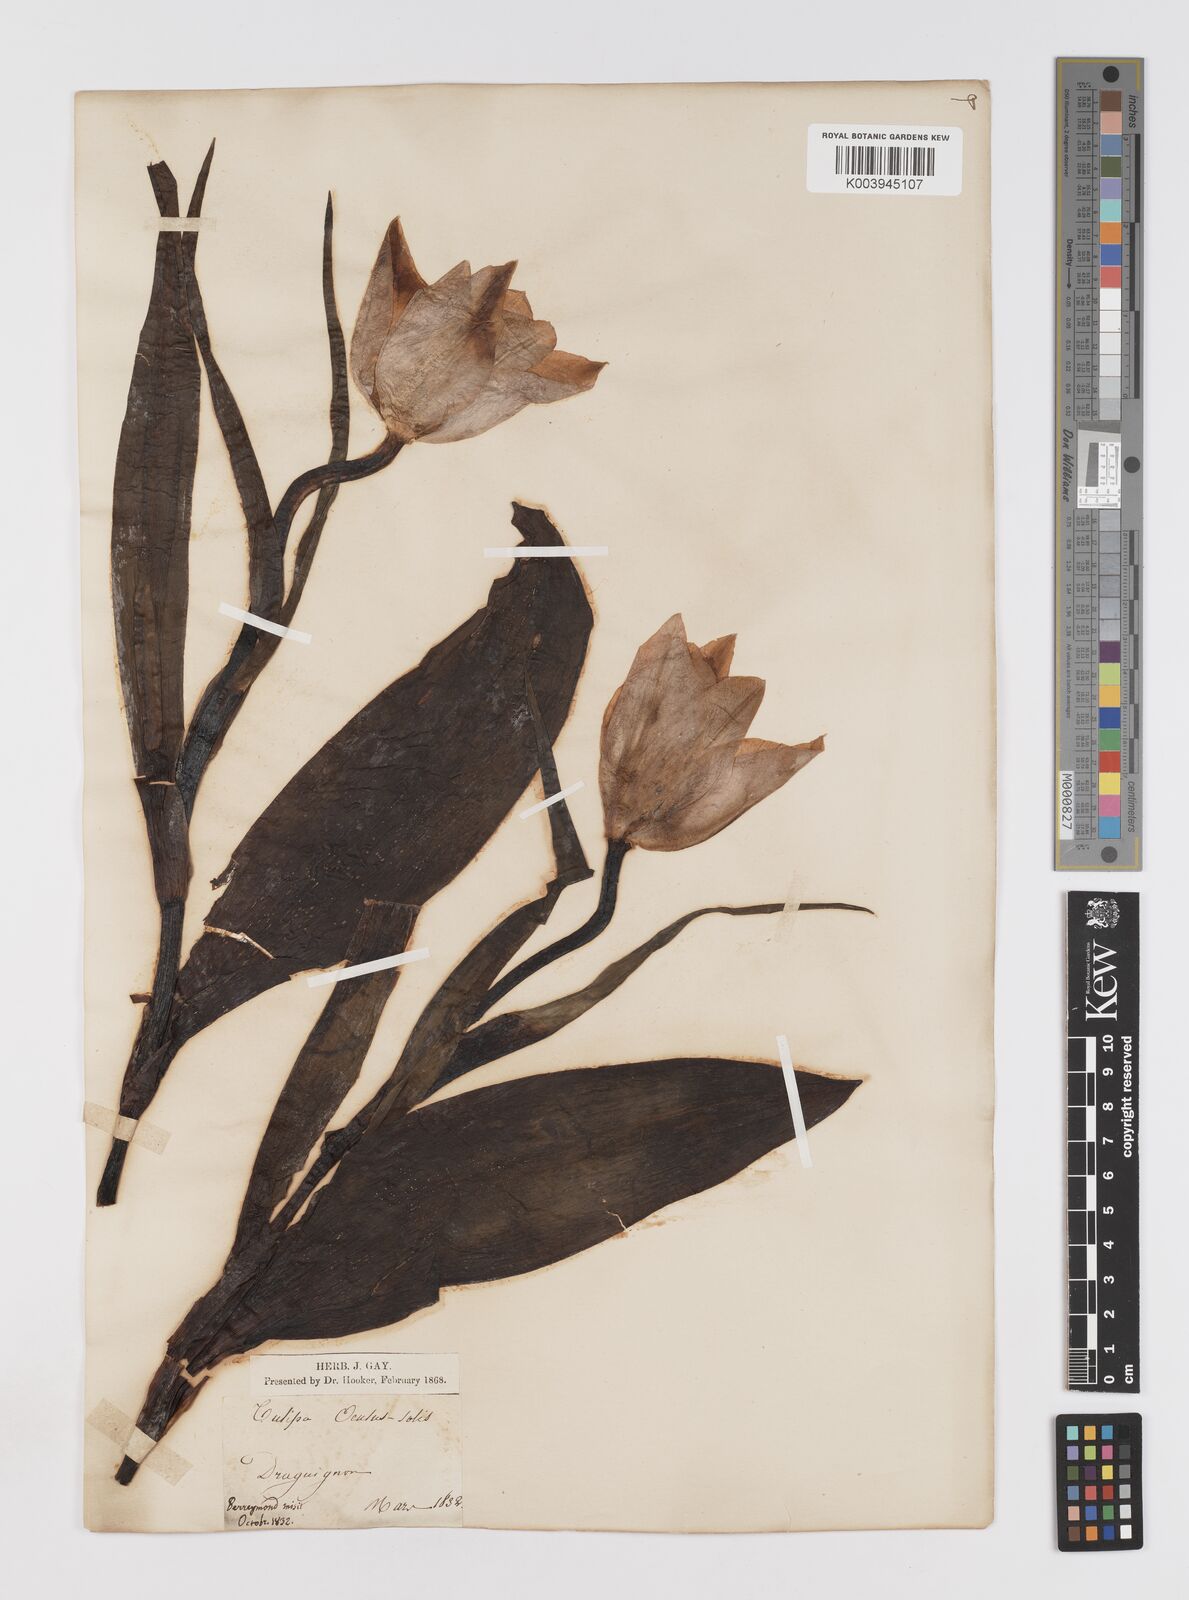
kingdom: Plantae
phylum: Tracheophyta
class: Liliopsida
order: Liliales
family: Liliaceae
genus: Tulipa
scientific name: Tulipa
